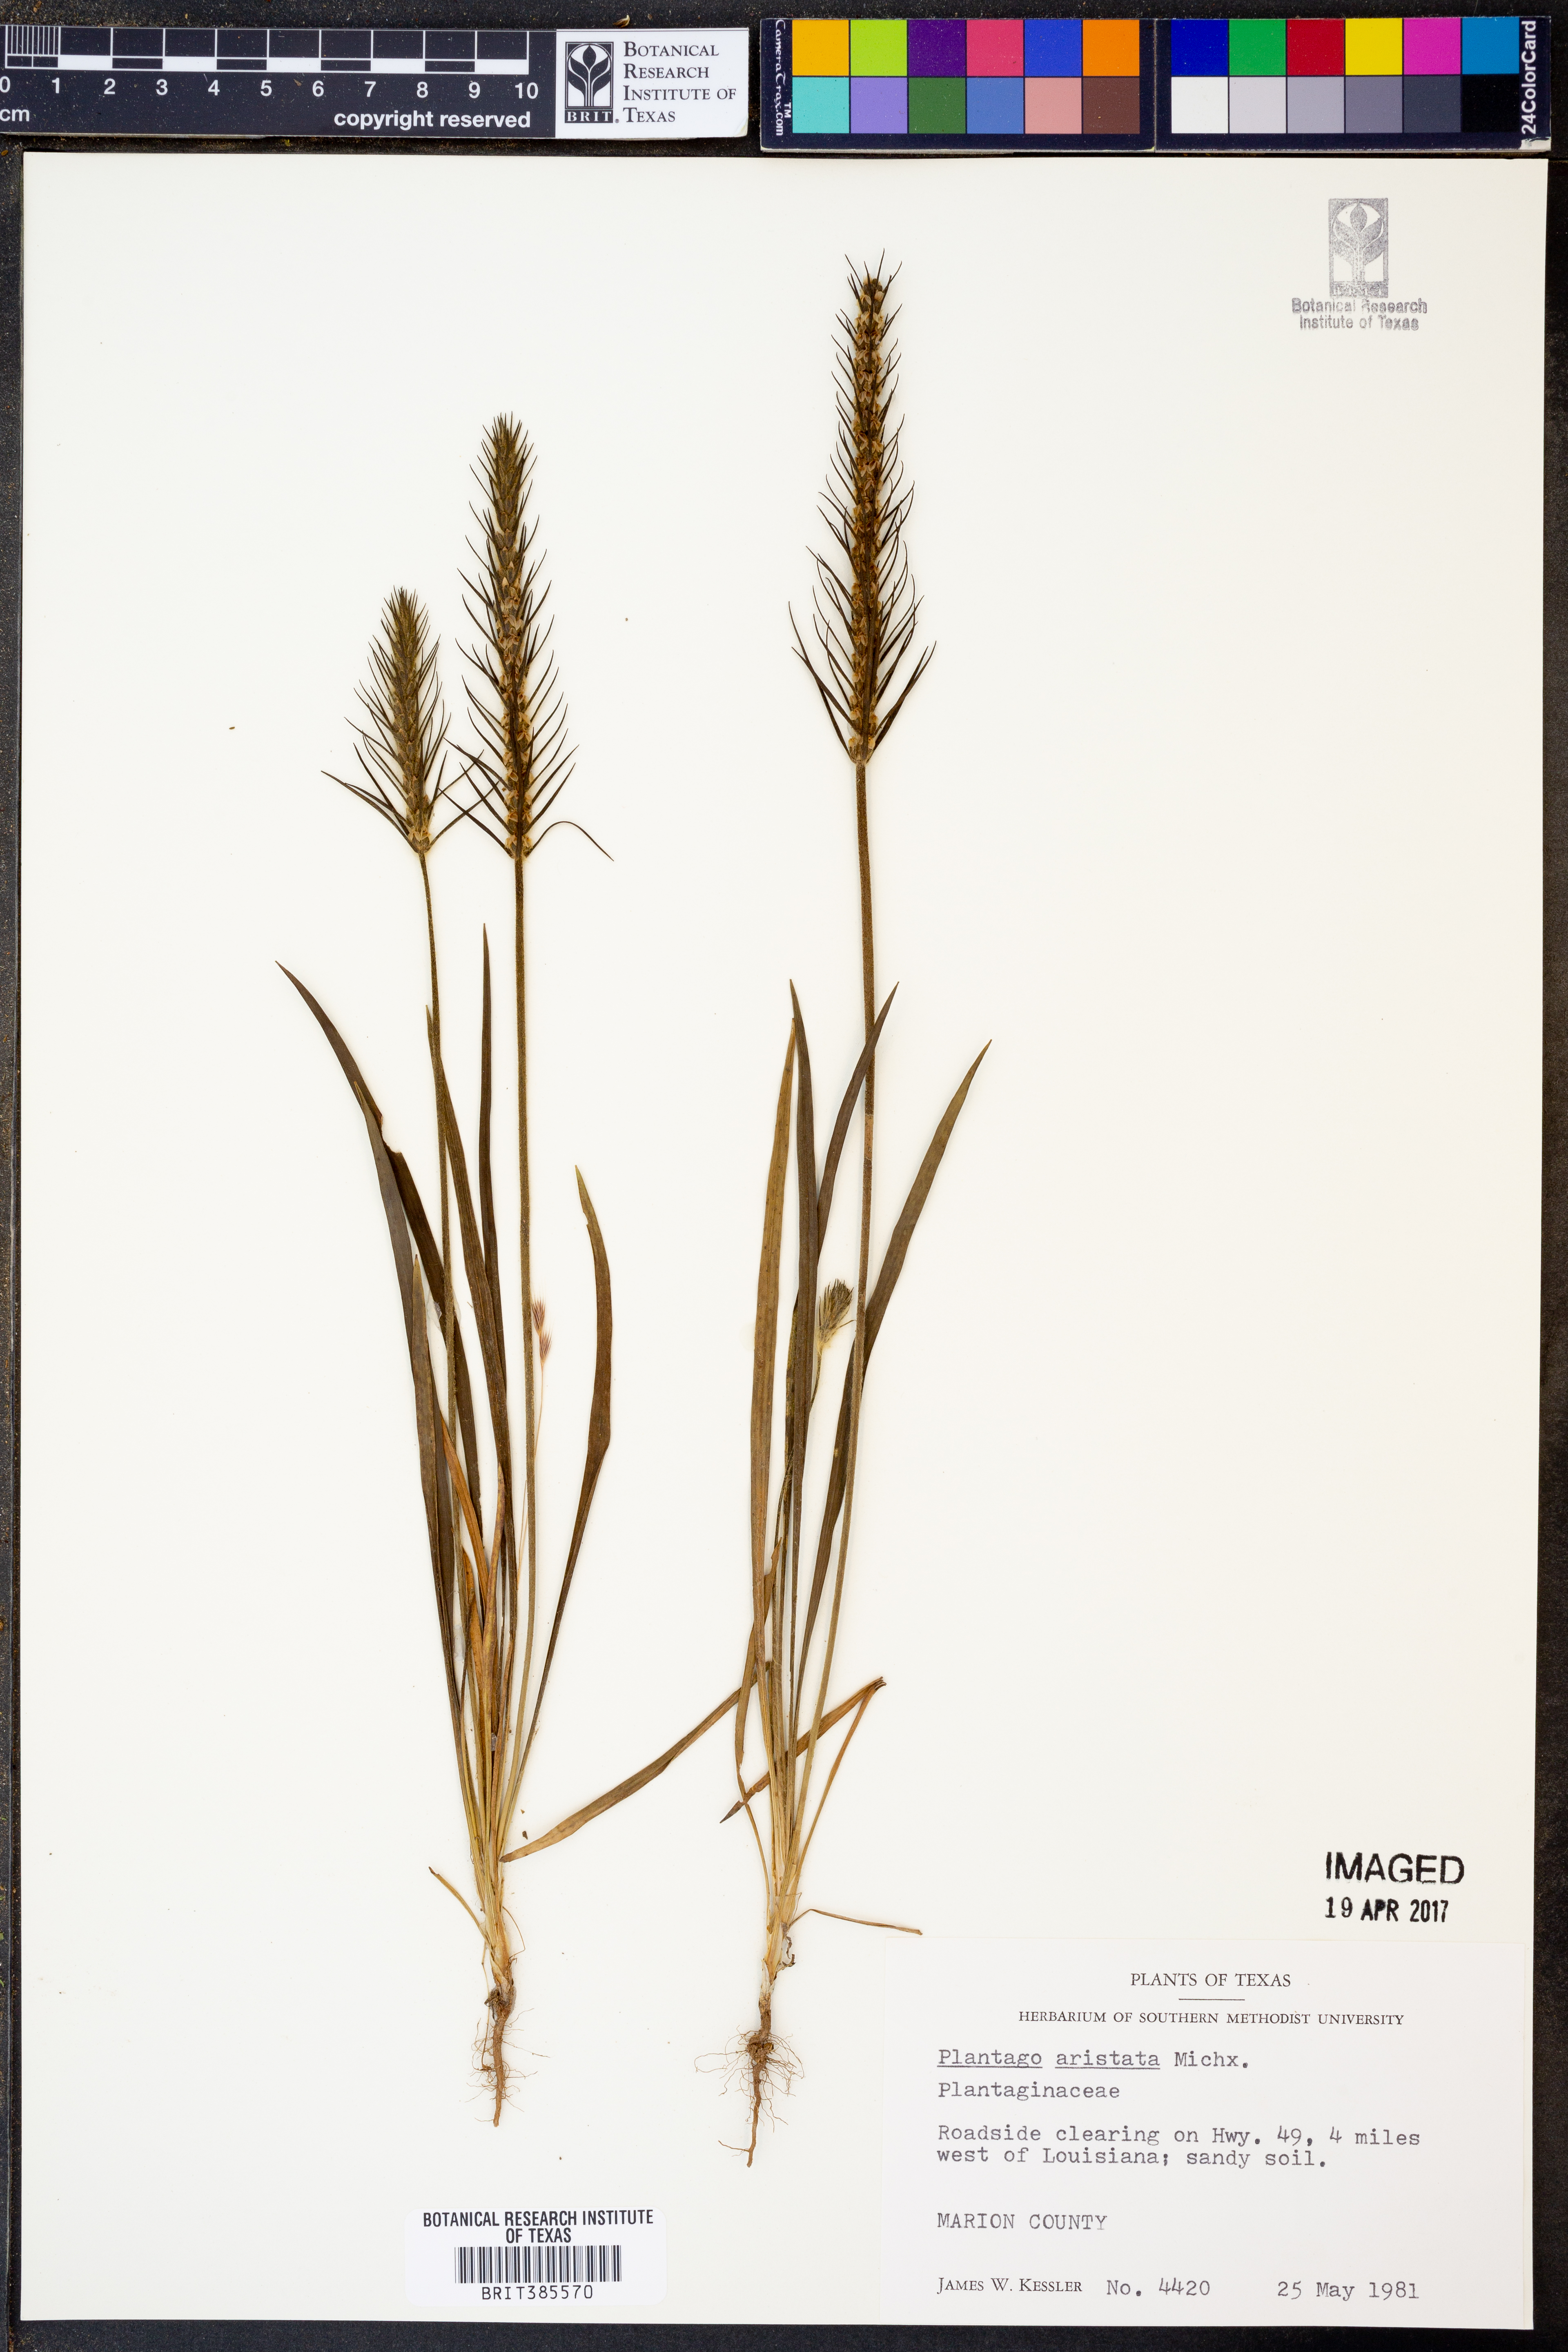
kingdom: Plantae
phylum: Tracheophyta
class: Magnoliopsida
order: Lamiales
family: Plantaginaceae
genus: Plantago
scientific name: Plantago aristata
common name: Bracted plantain
